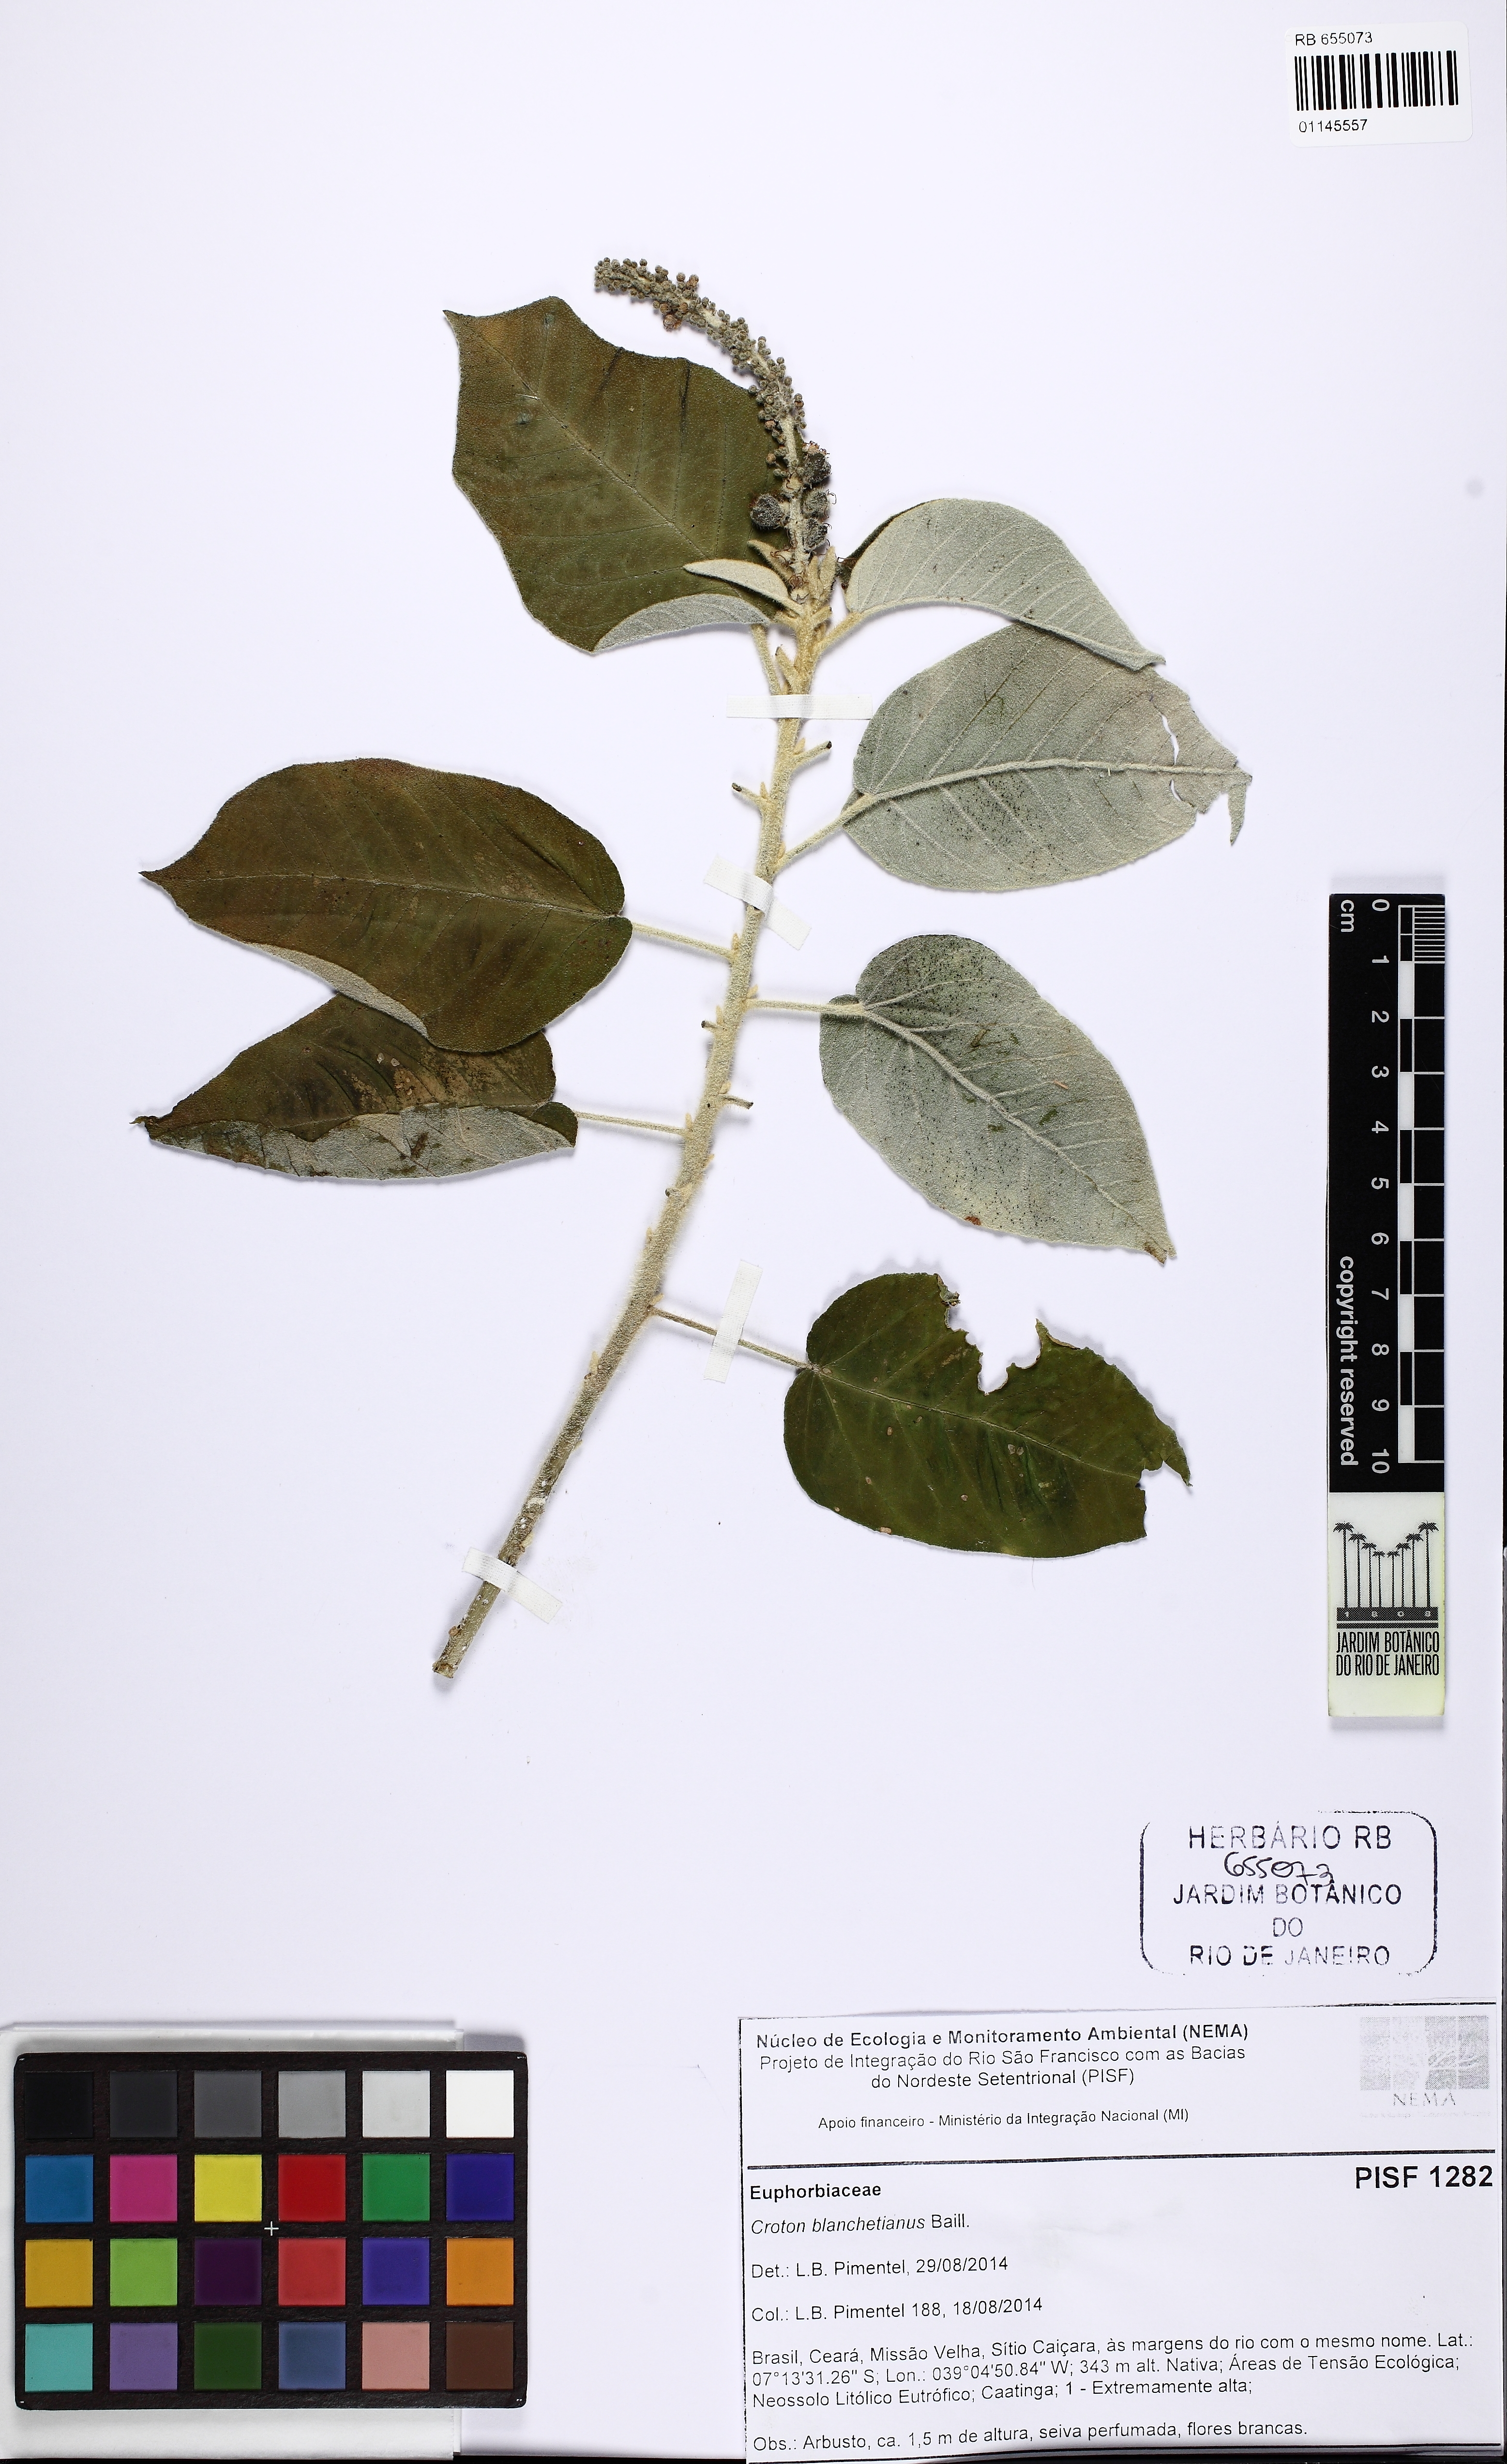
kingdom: Plantae
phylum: Tracheophyta
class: Magnoliopsida
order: Malpighiales
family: Euphorbiaceae
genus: Croton
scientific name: Croton blanchetianus
